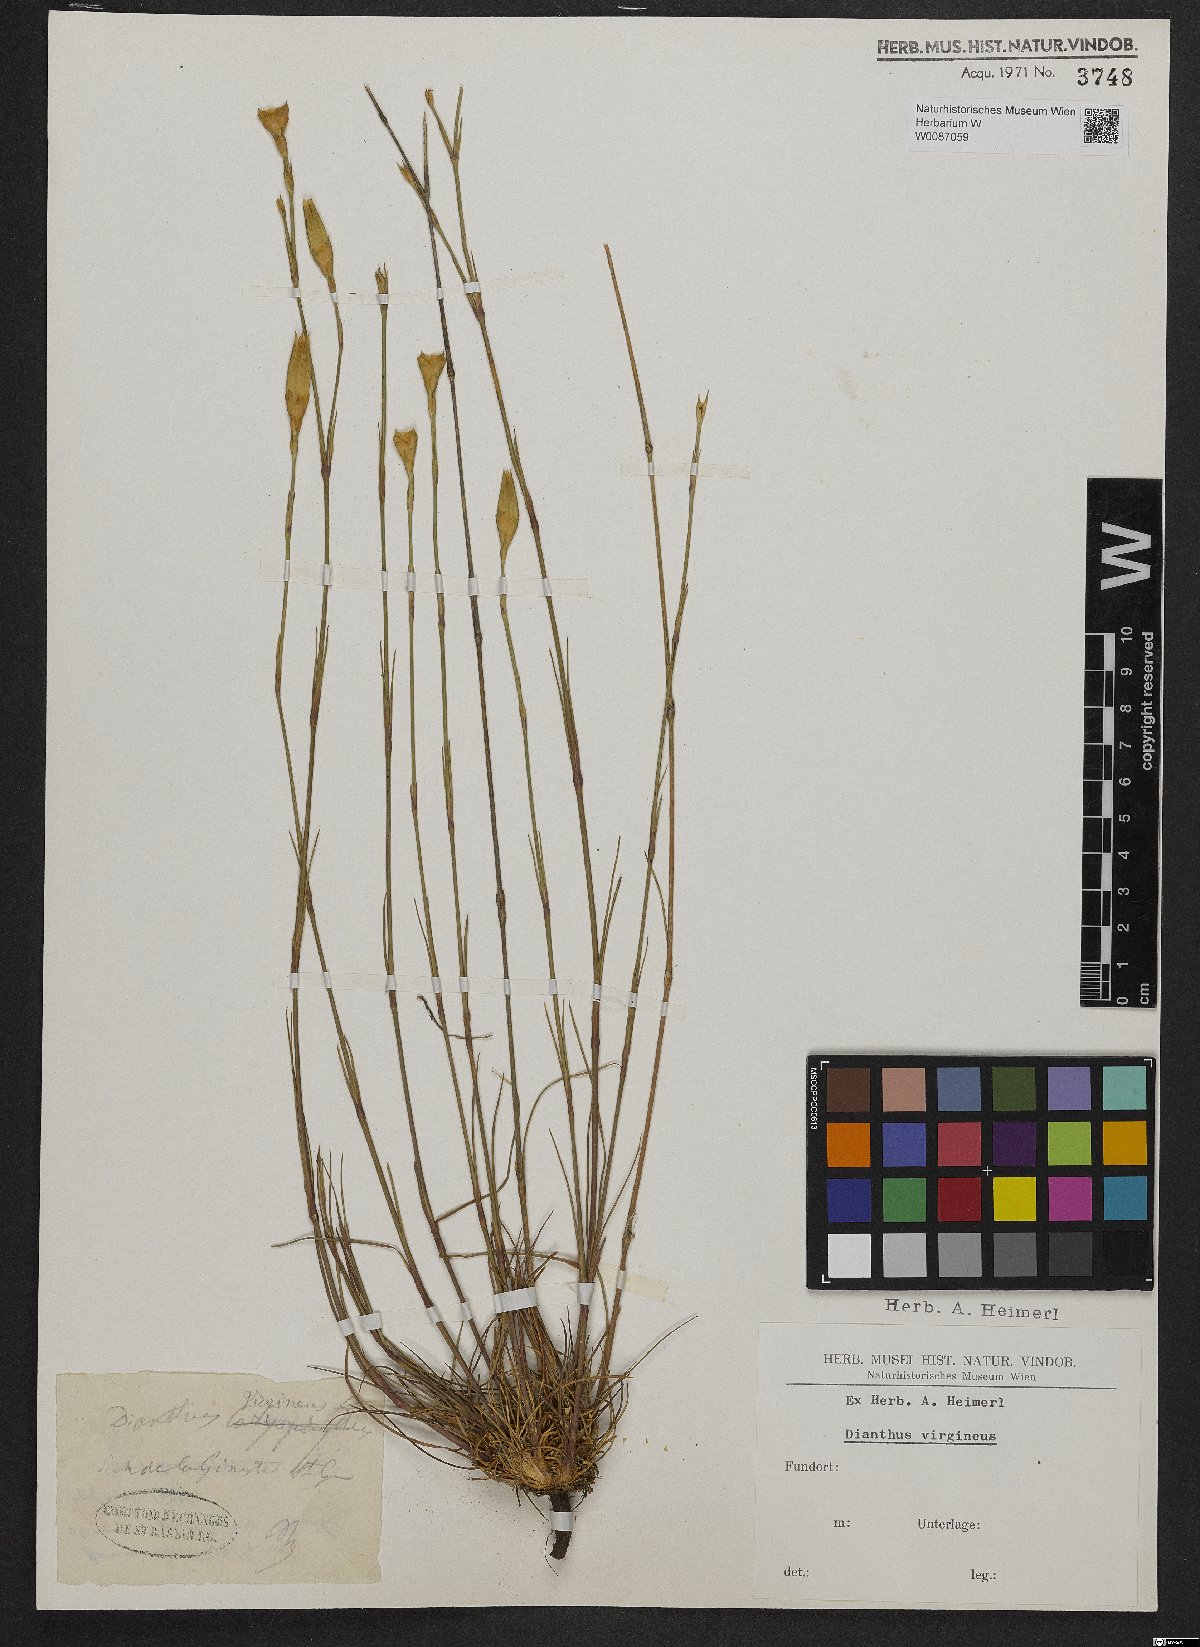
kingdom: Plantae
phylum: Tracheophyta
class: Magnoliopsida
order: Caryophyllales
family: Caryophyllaceae
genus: Dianthus
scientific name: Dianthus virgineus
